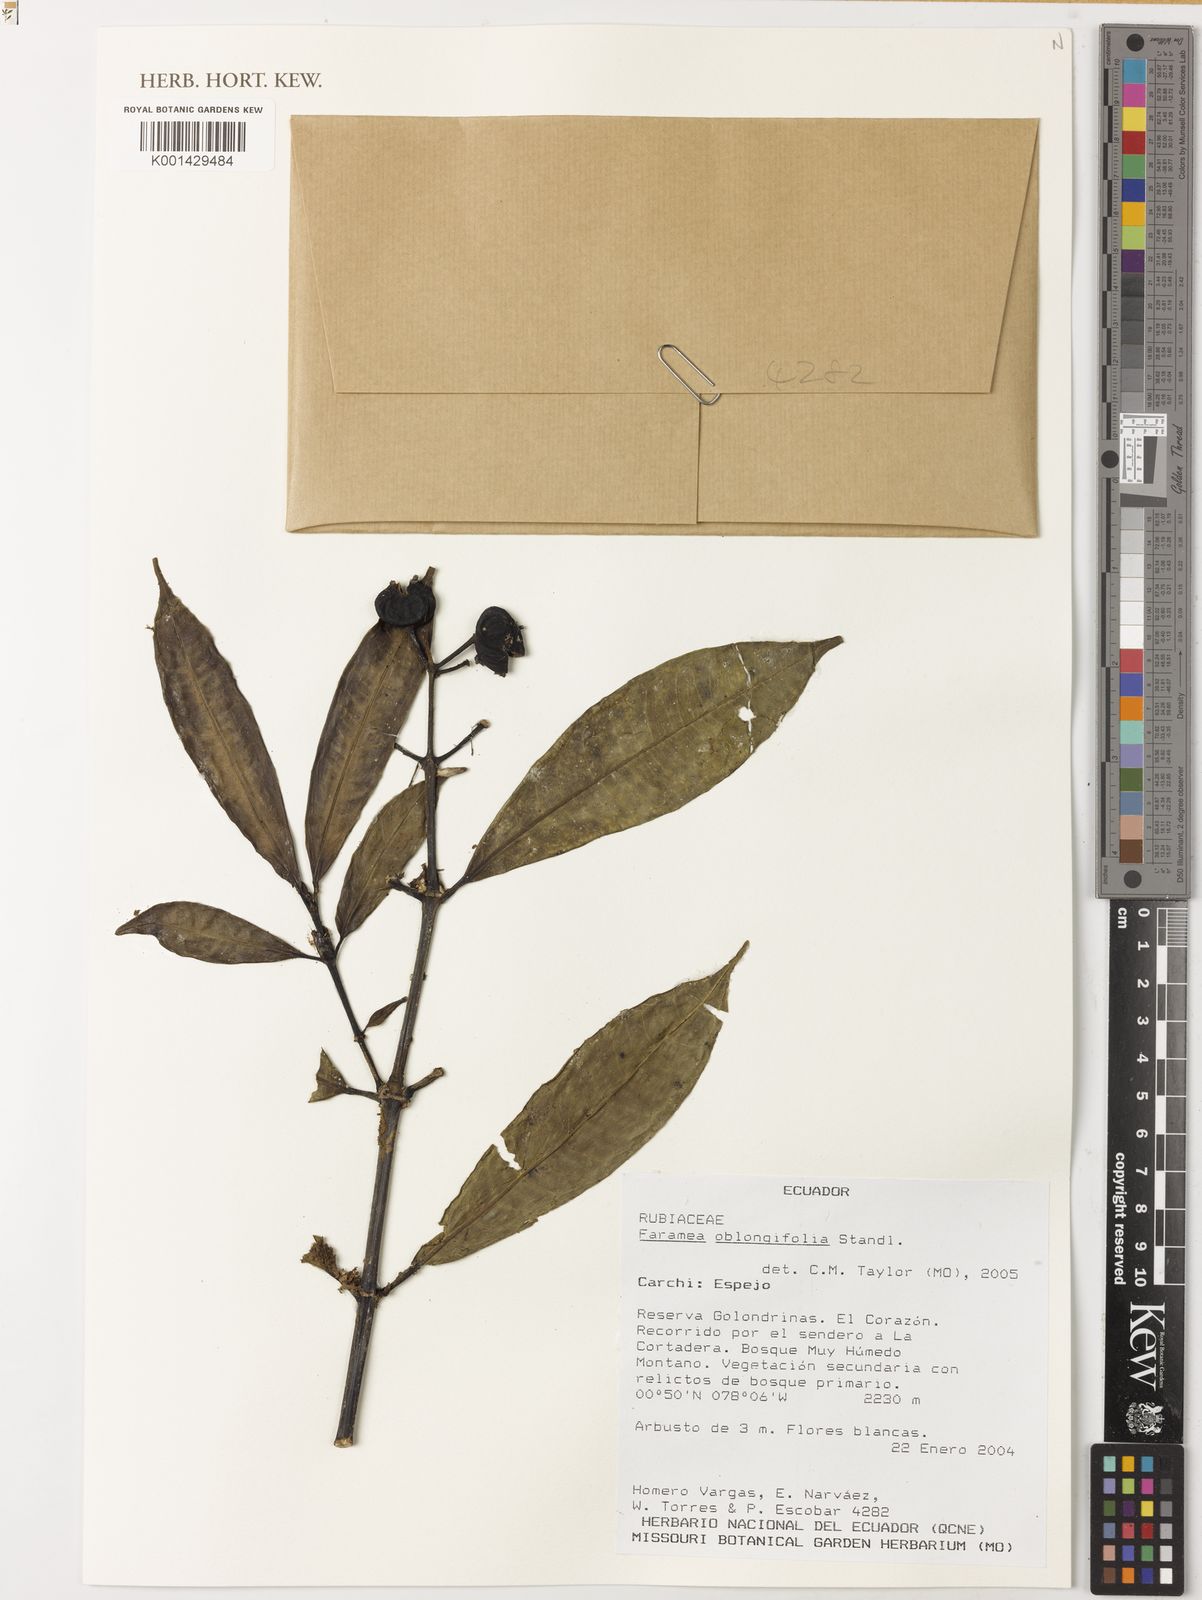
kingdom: Plantae
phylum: Tracheophyta
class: Magnoliopsida
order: Gentianales
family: Rubiaceae
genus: Faramea
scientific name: Faramea oblongifolia
